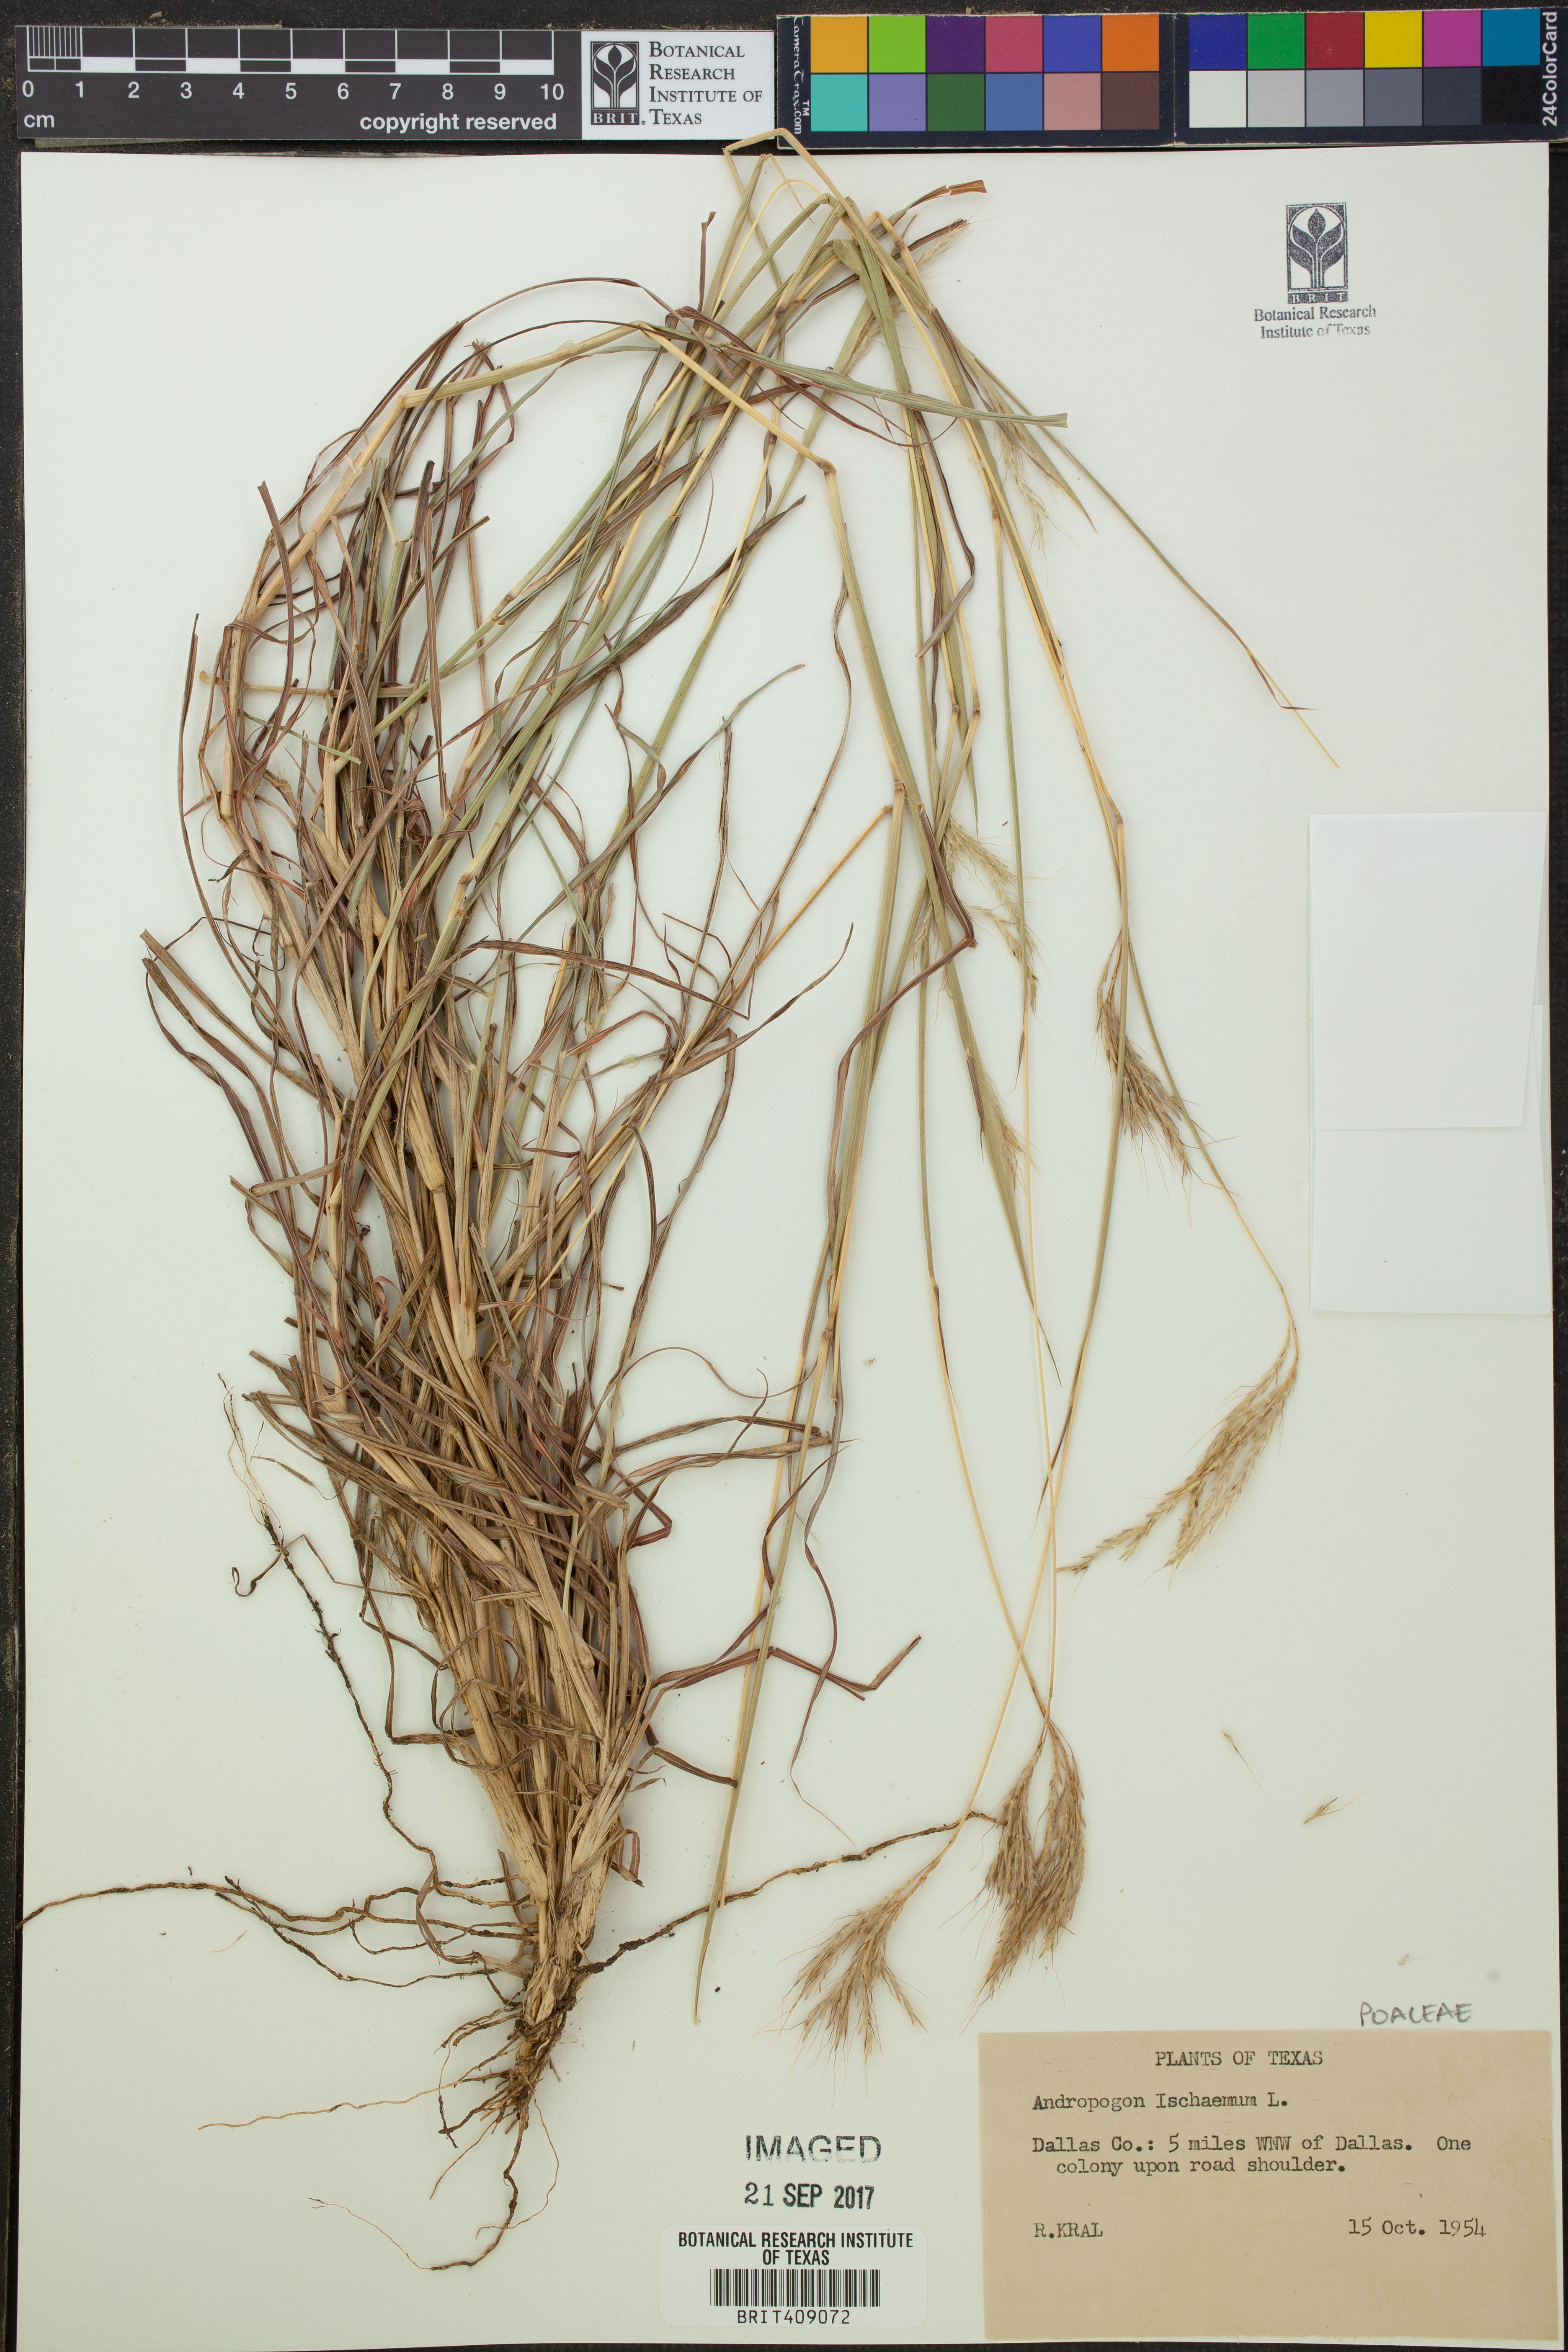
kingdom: Plantae
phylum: Tracheophyta
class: Liliopsida
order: Poales
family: Poaceae
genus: Andropogon
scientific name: Andropogon ischaemum
